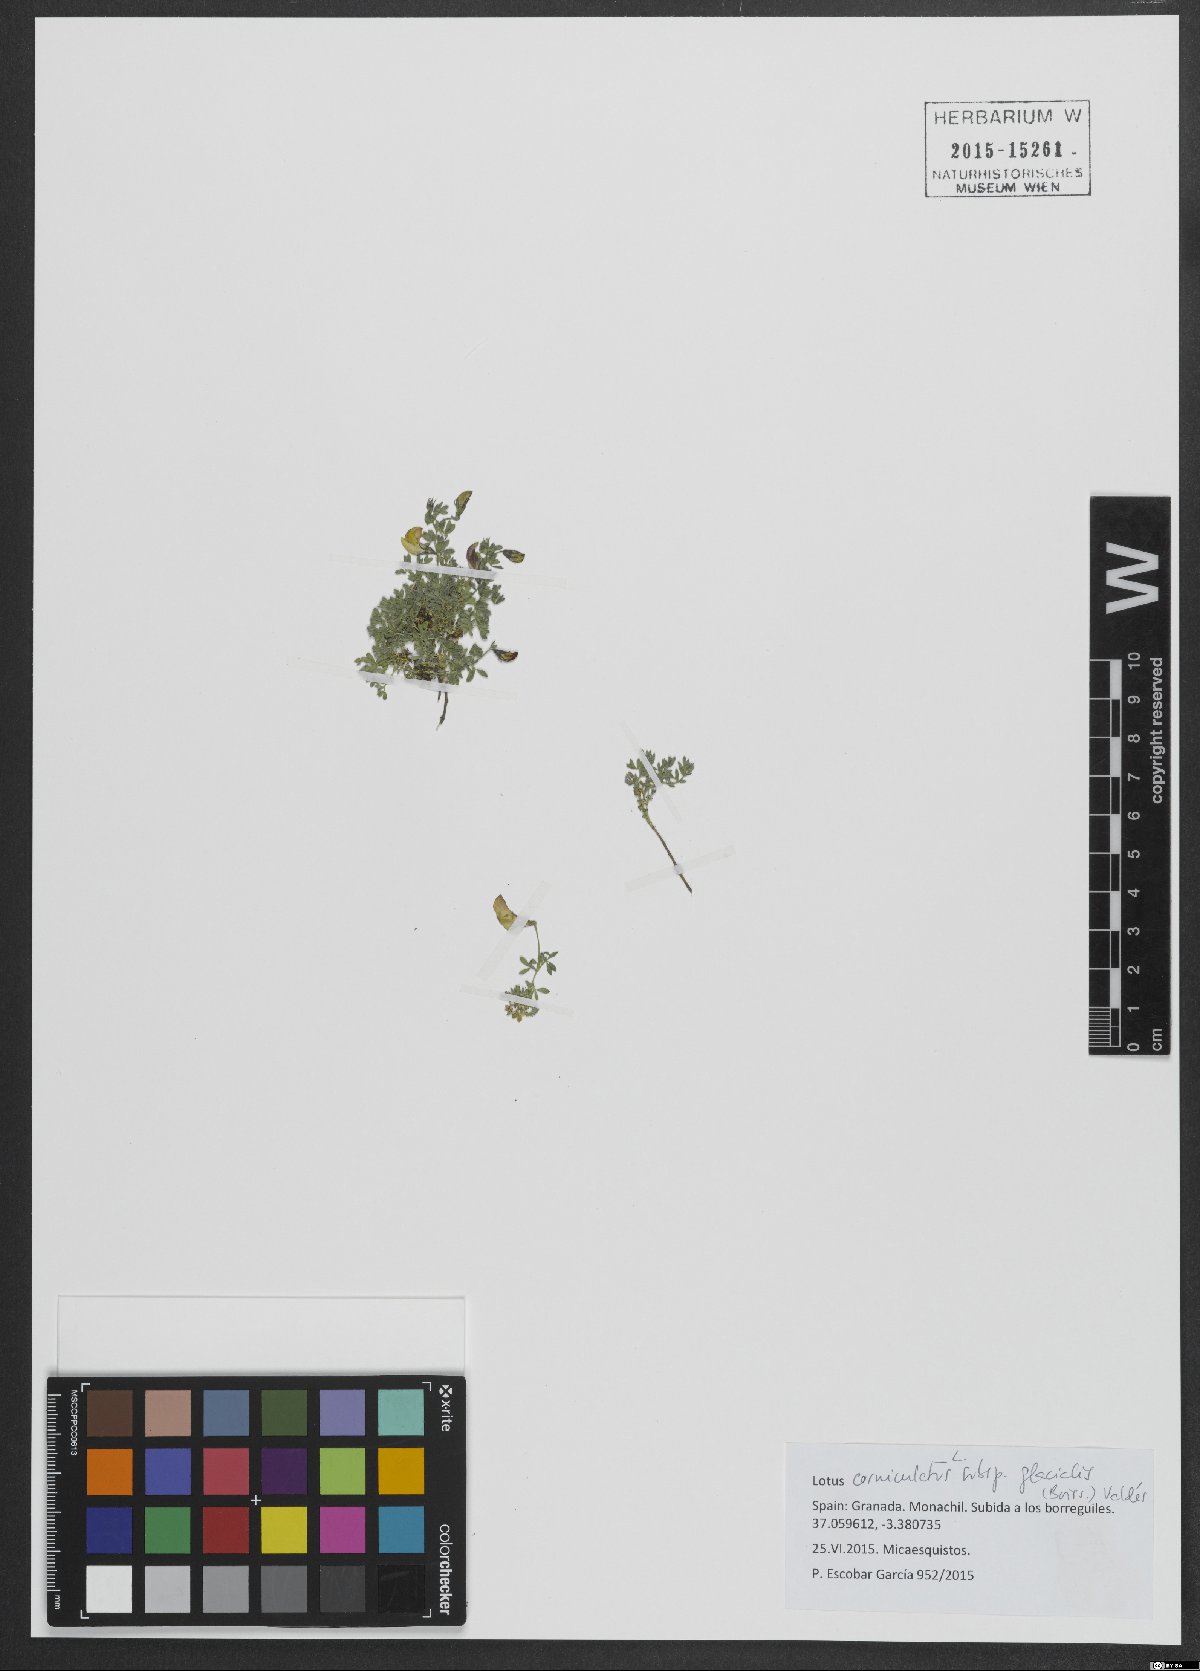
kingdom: Plantae
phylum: Tracheophyta
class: Magnoliopsida
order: Fabales
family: Fabaceae
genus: Lotus
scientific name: Lotus glacialis
